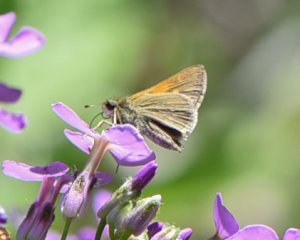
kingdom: Animalia
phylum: Arthropoda
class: Insecta
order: Lepidoptera
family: Hesperiidae
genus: Polites
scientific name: Polites themistocles
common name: Tawny-edged Skipper
